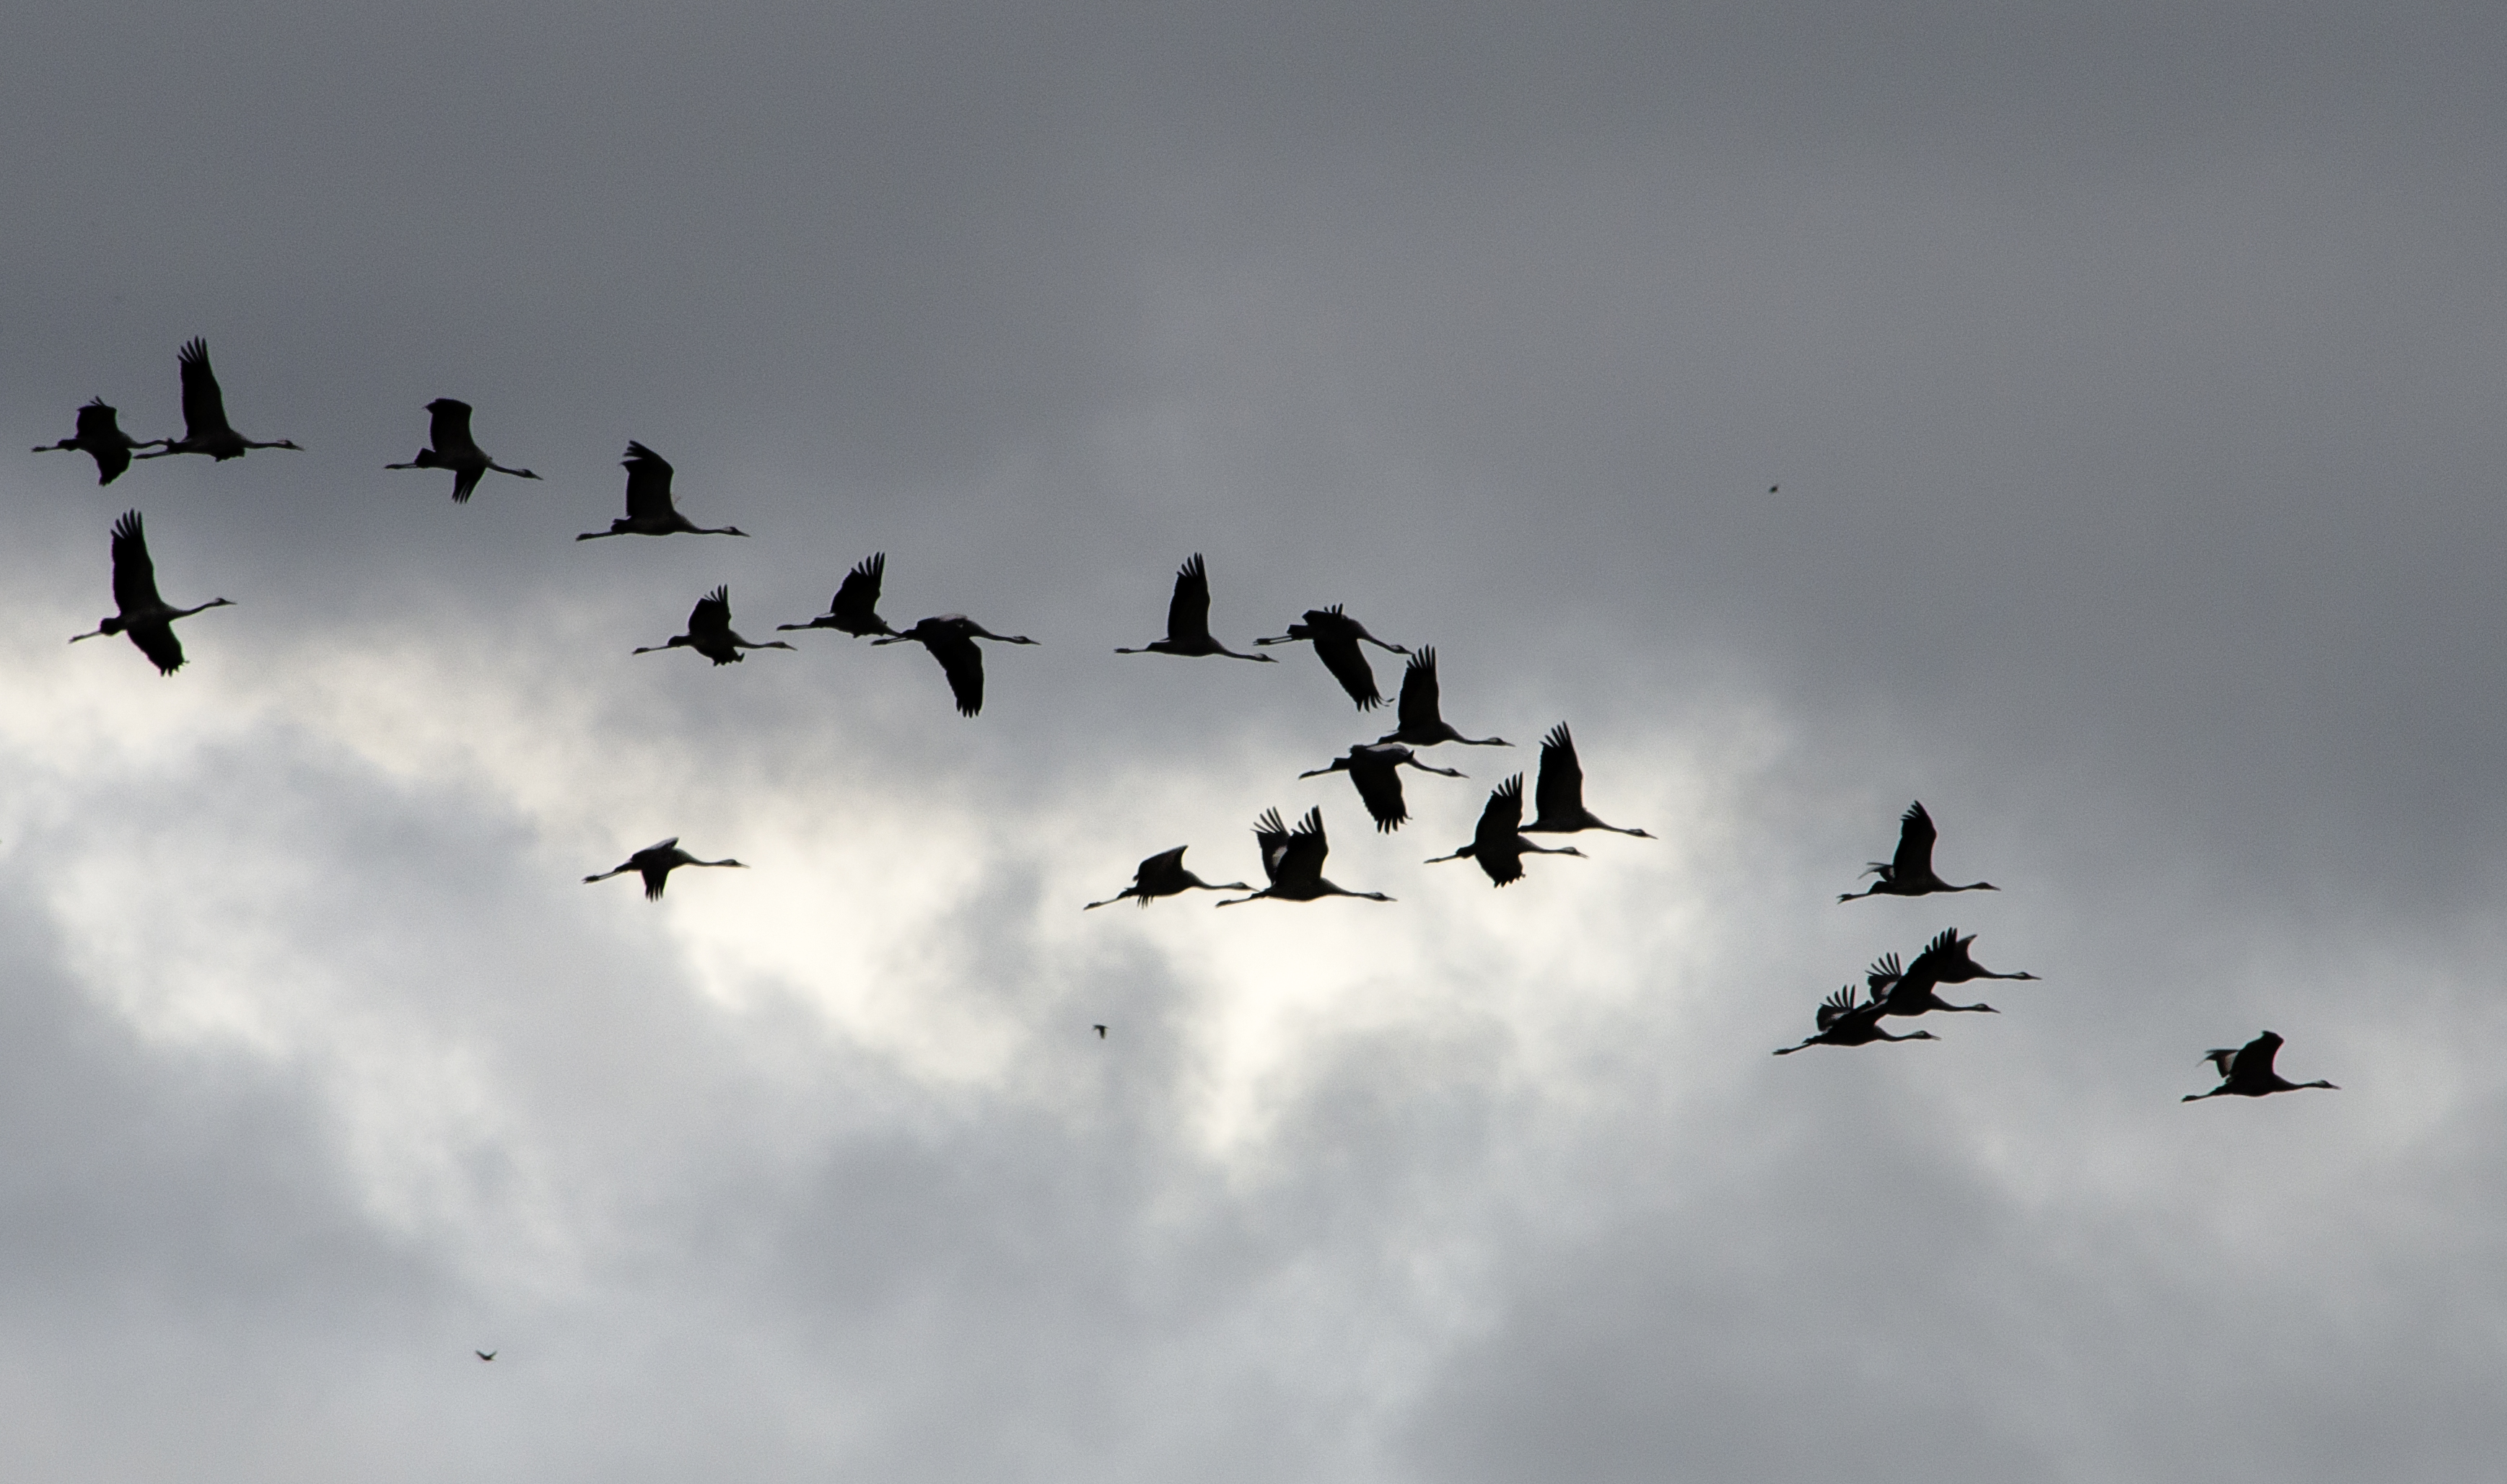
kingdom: Animalia
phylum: Chordata
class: Aves
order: Gruiformes
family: Gruidae
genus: Grus
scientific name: Grus grus
